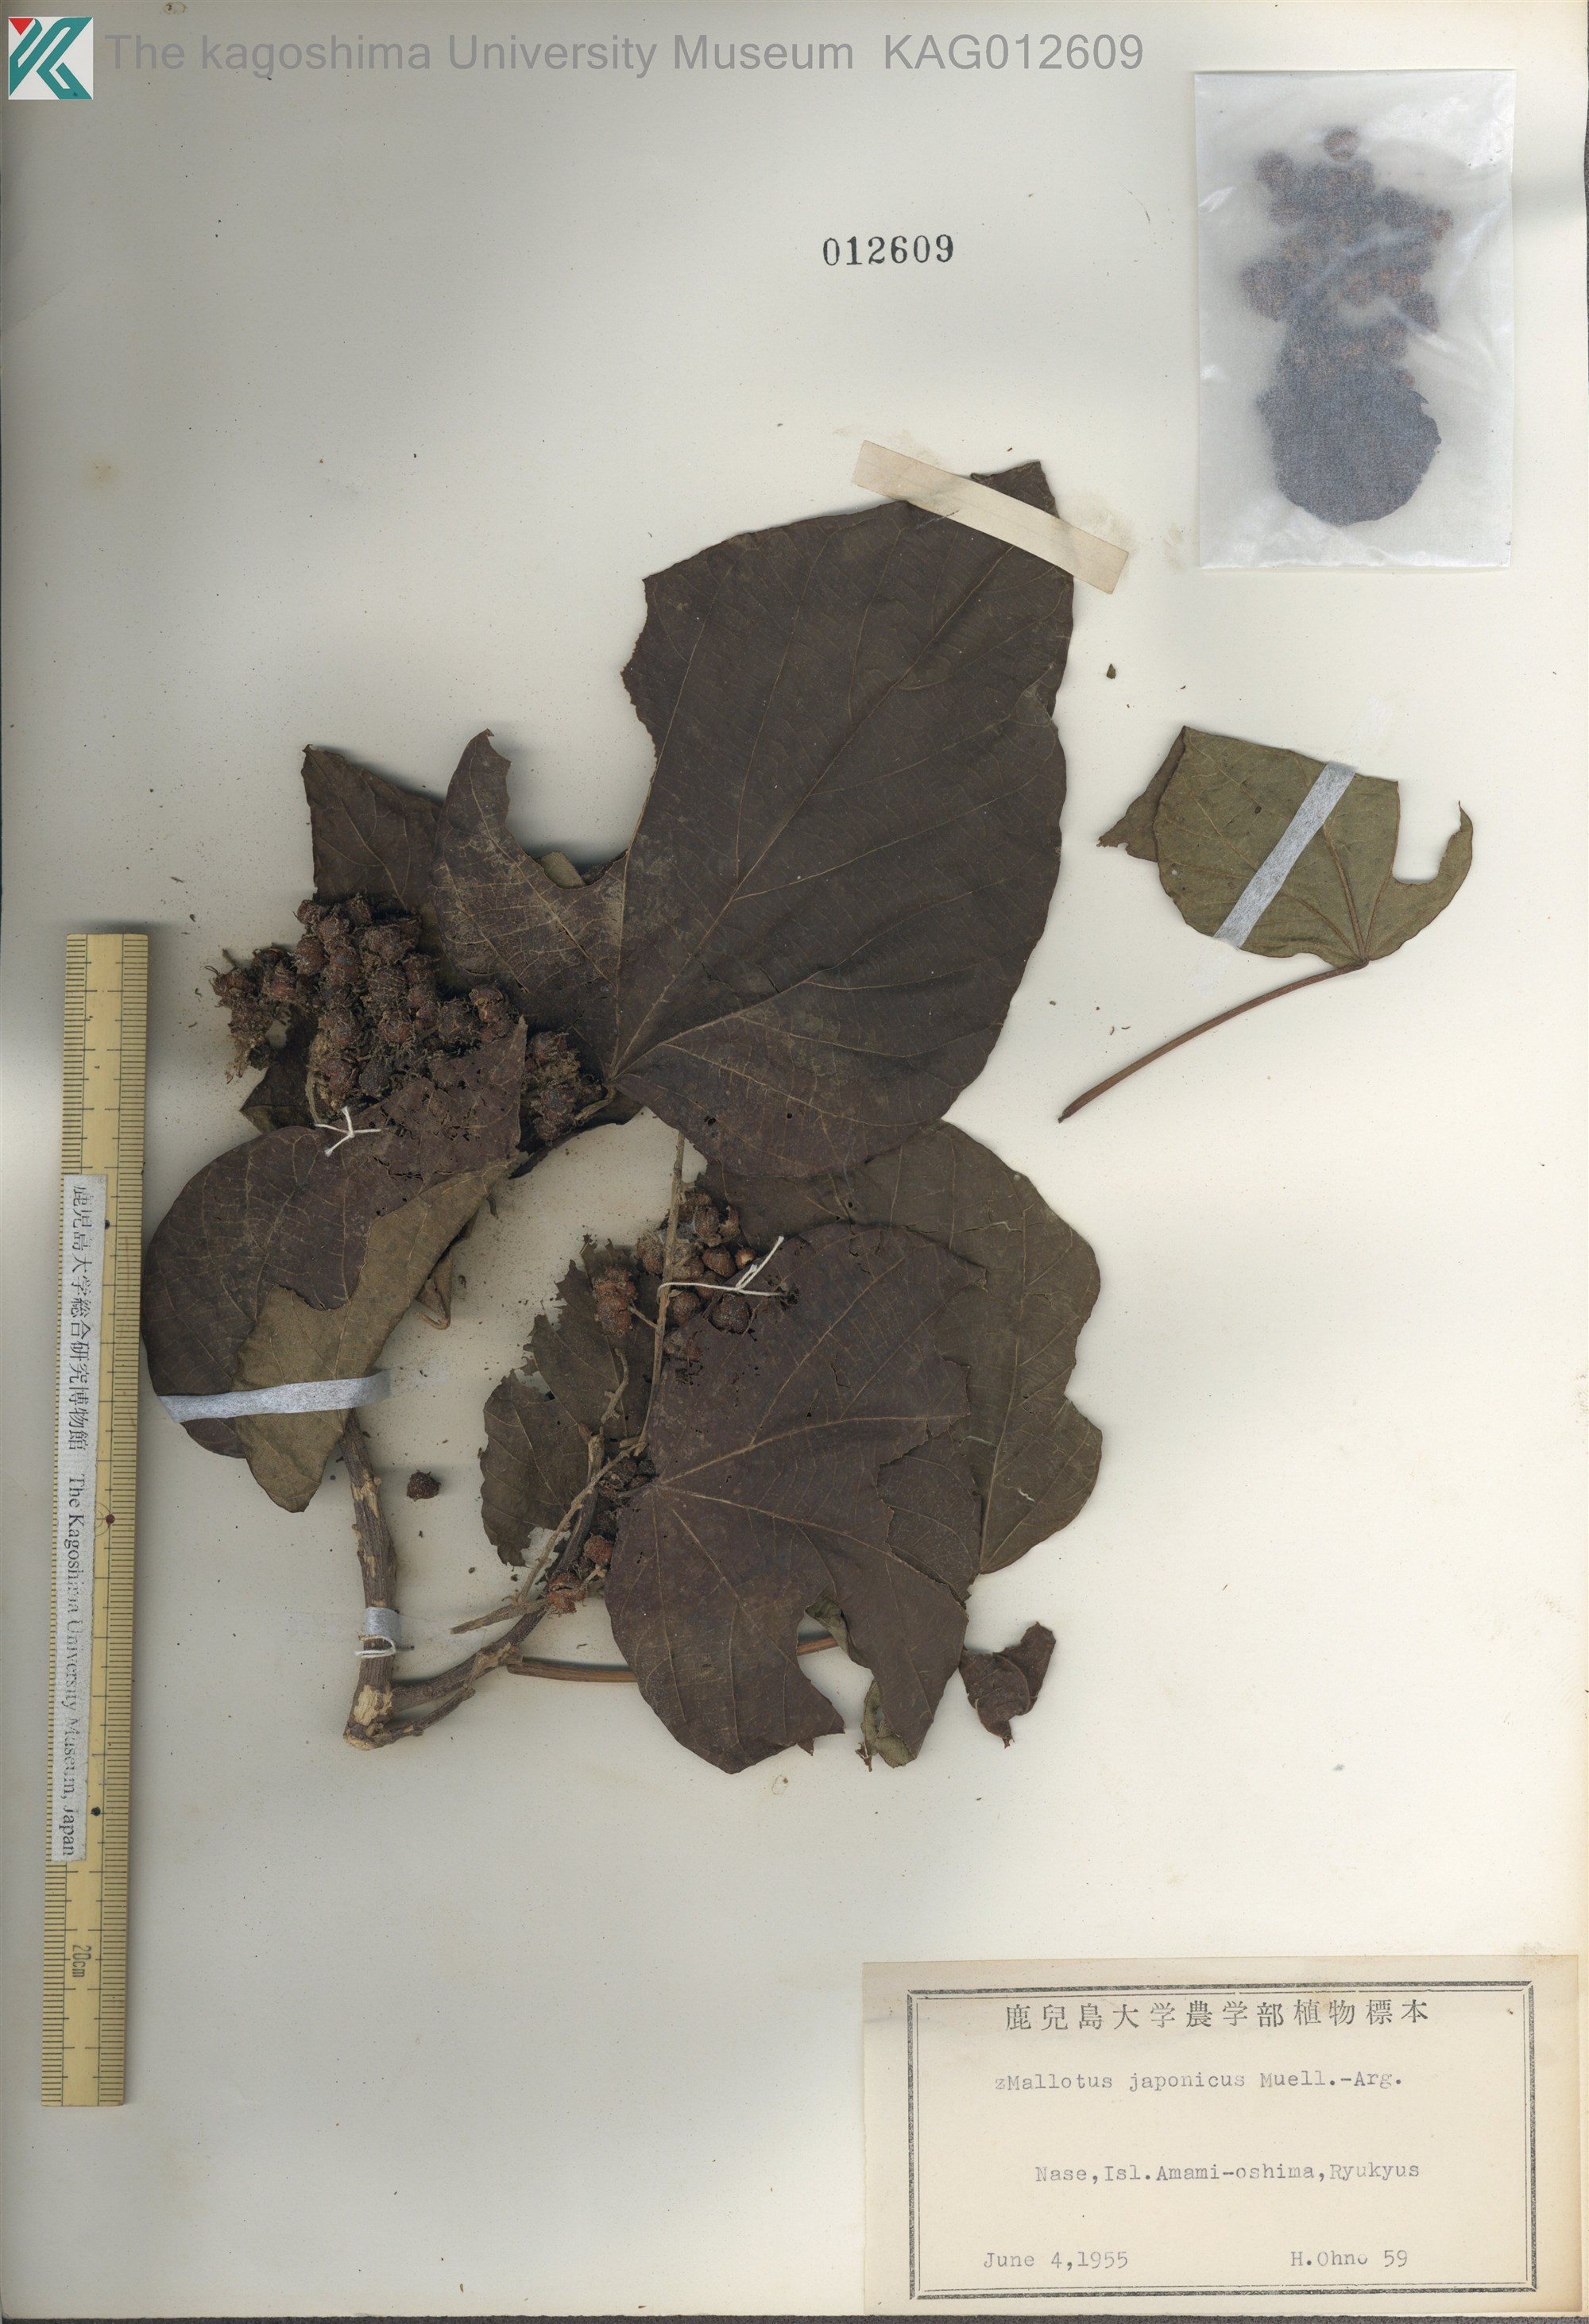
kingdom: Plantae
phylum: Tracheophyta
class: Magnoliopsida
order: Malpighiales
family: Euphorbiaceae
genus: Mallotus
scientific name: Mallotus japonicus
